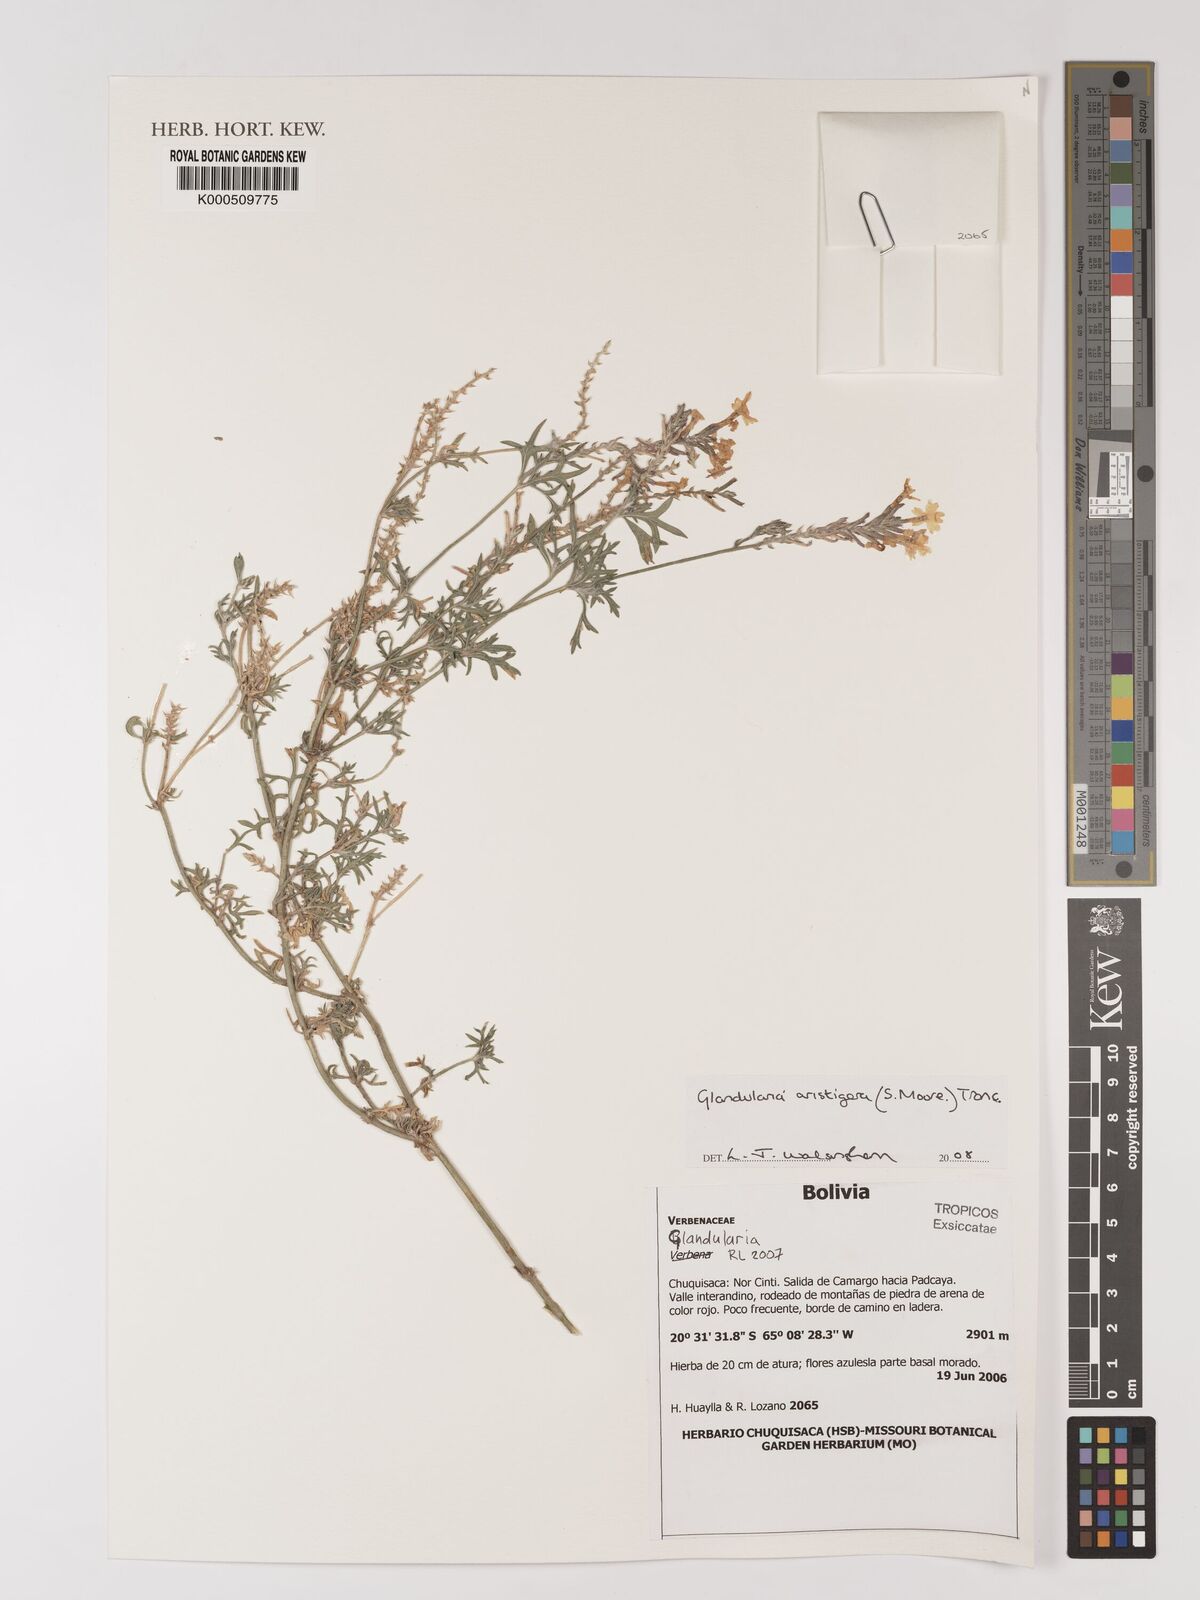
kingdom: Plantae
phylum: Tracheophyta
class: Magnoliopsida
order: Lamiales
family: Verbenaceae
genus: Verbena
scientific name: Verbena aristigera
